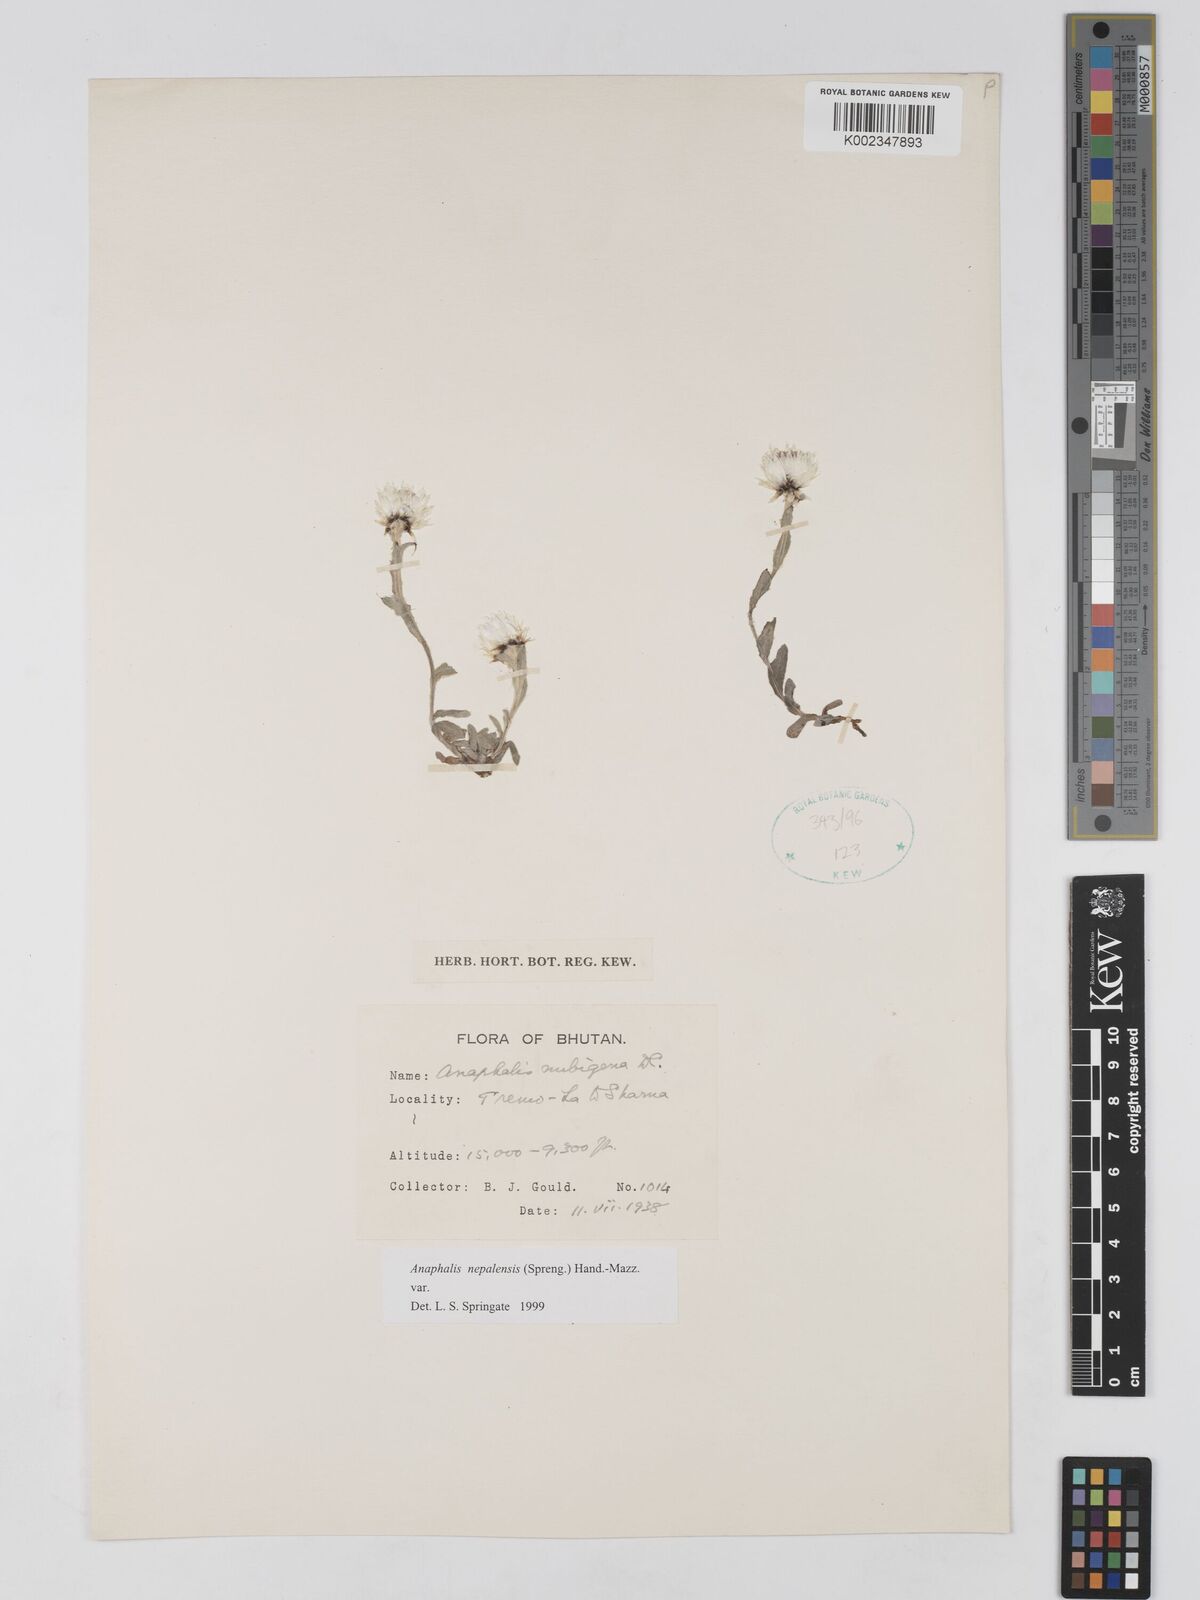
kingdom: Plantae
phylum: Tracheophyta
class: Magnoliopsida
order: Asterales
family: Asteraceae
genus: Anaphalis
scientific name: Anaphalis nepalensis
